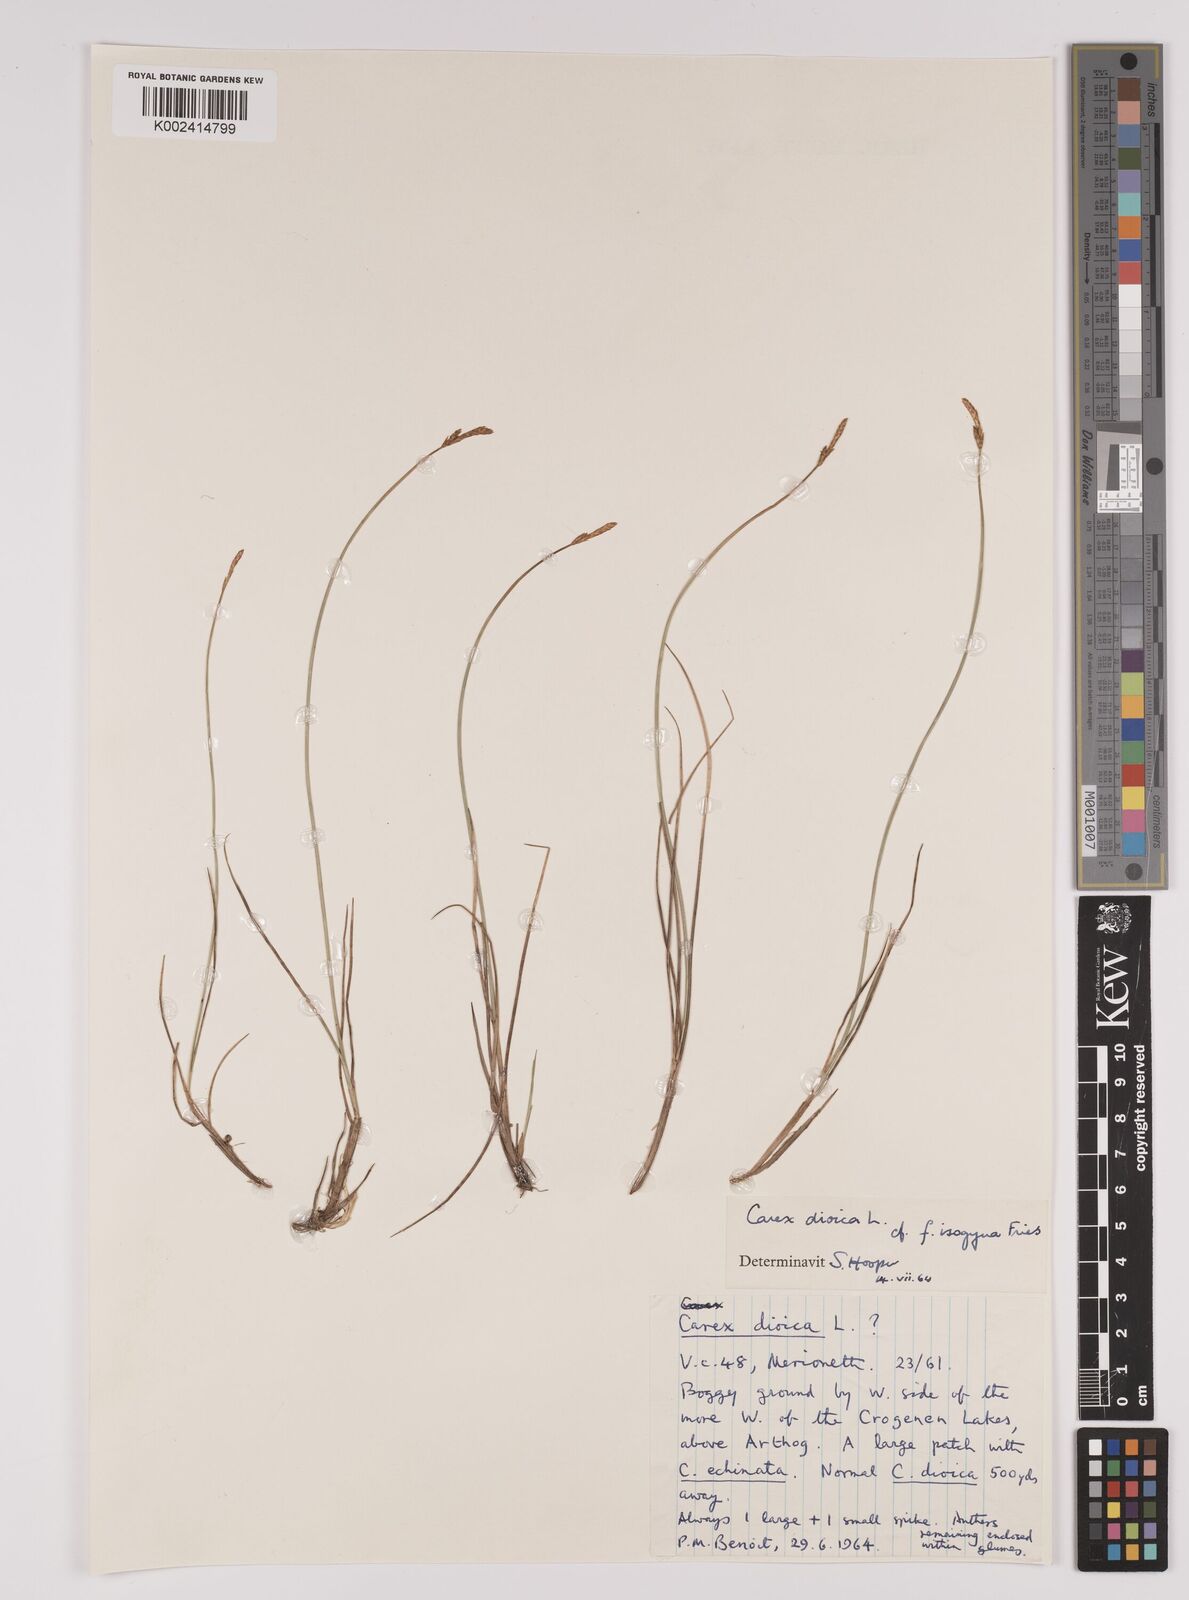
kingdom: Plantae
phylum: Tracheophyta
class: Liliopsida
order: Poales
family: Cyperaceae
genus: Carex
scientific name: Carex dioica
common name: Dioecious sedge
